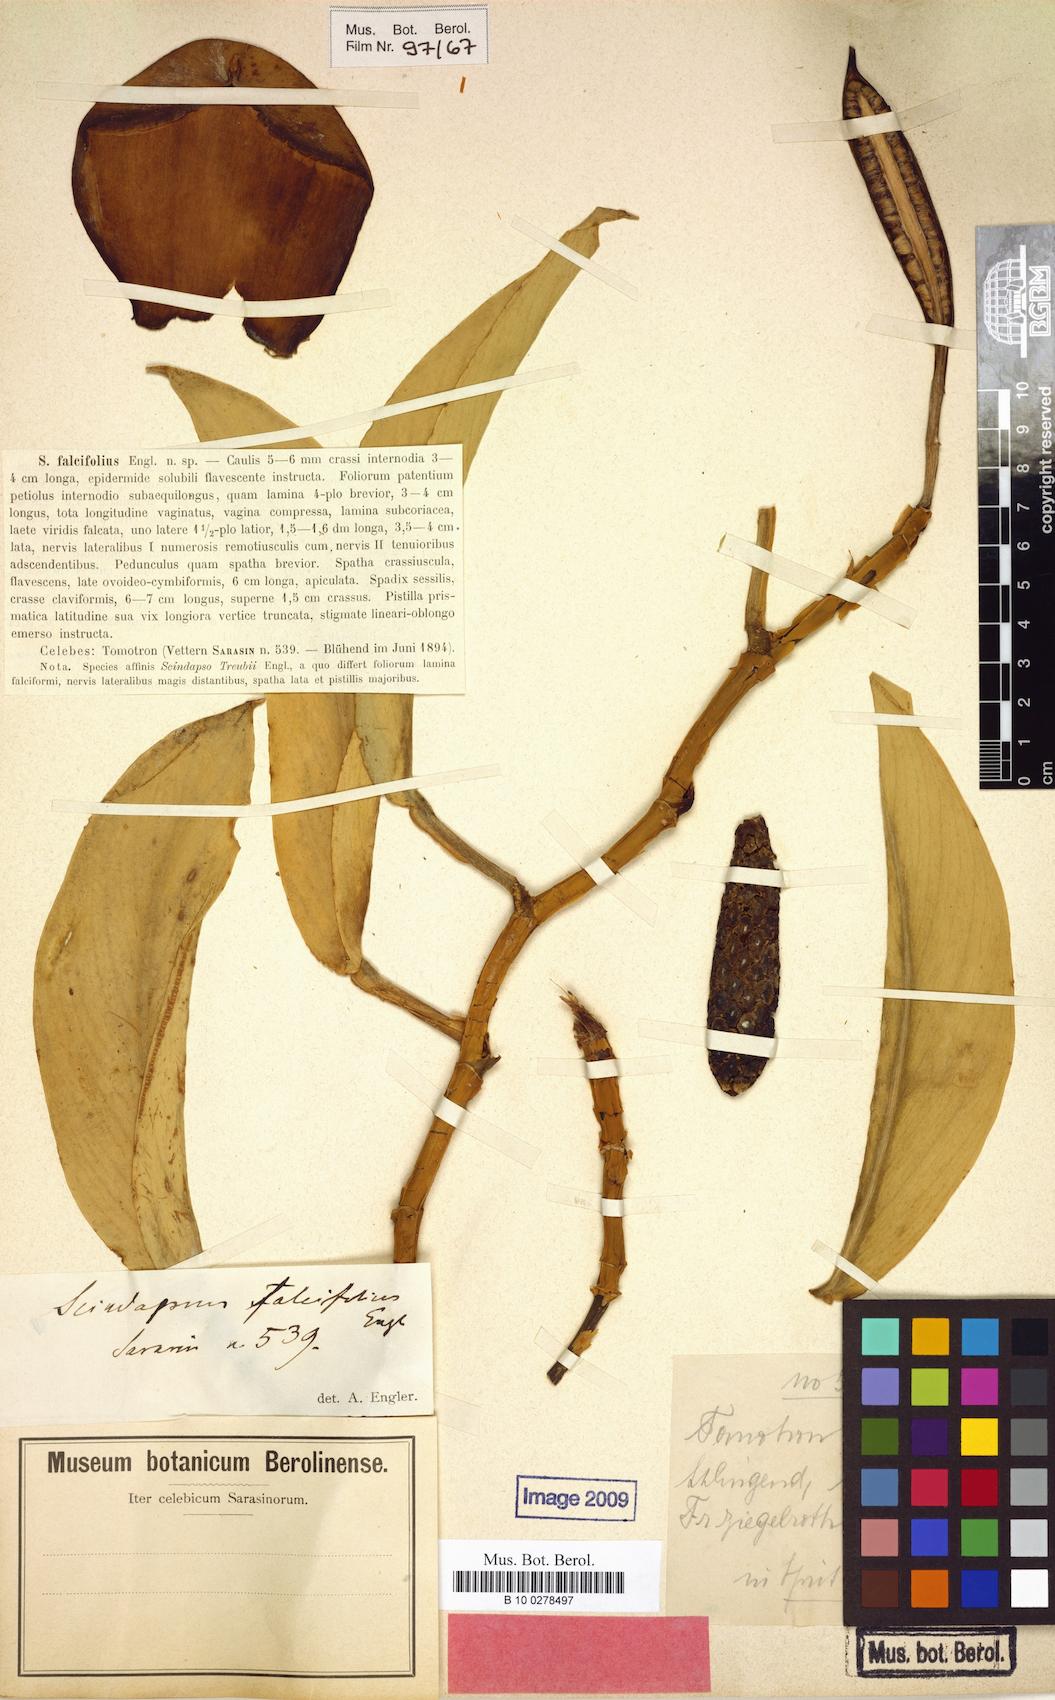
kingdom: Plantae
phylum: Tracheophyta
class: Liliopsida
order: Alismatales
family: Araceae
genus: Scindapsus
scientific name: Scindapsus falcifolius
